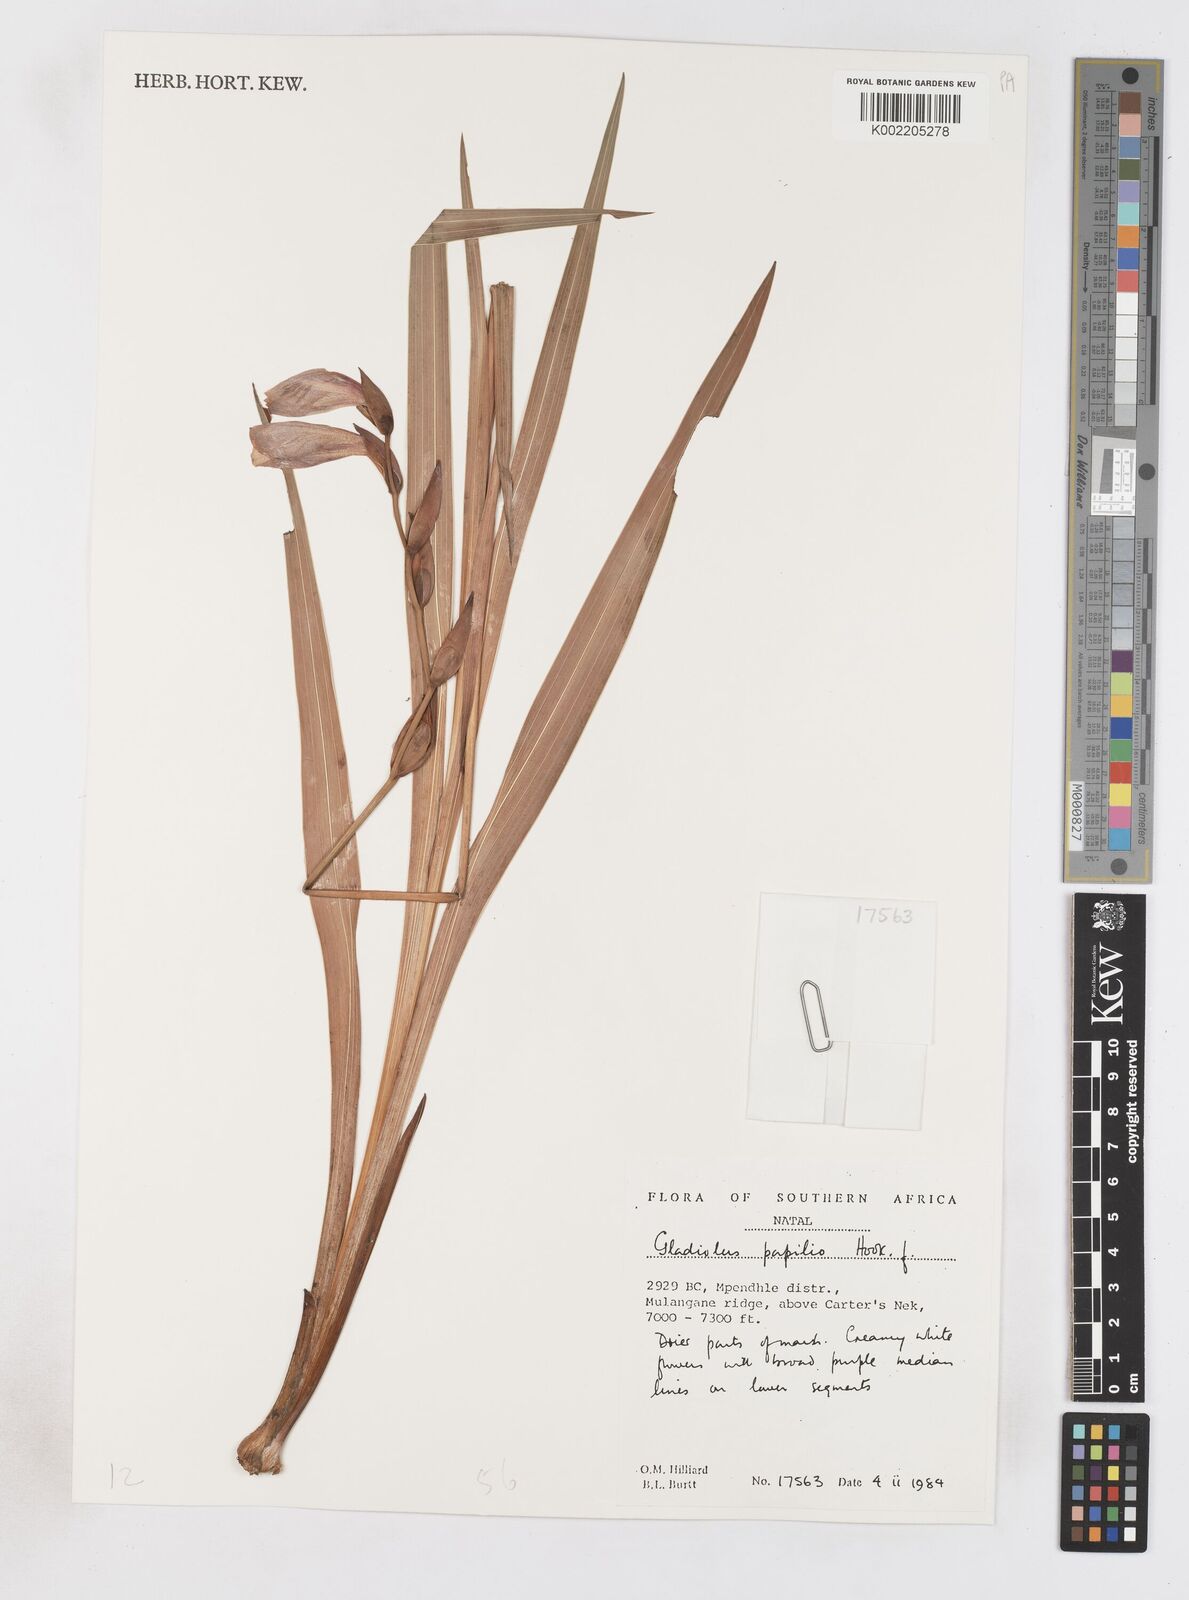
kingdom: Plantae
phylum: Tracheophyta
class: Liliopsida
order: Asparagales
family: Iridaceae
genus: Gladiolus
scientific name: Gladiolus papilio
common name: Goldblotch gladiolus
